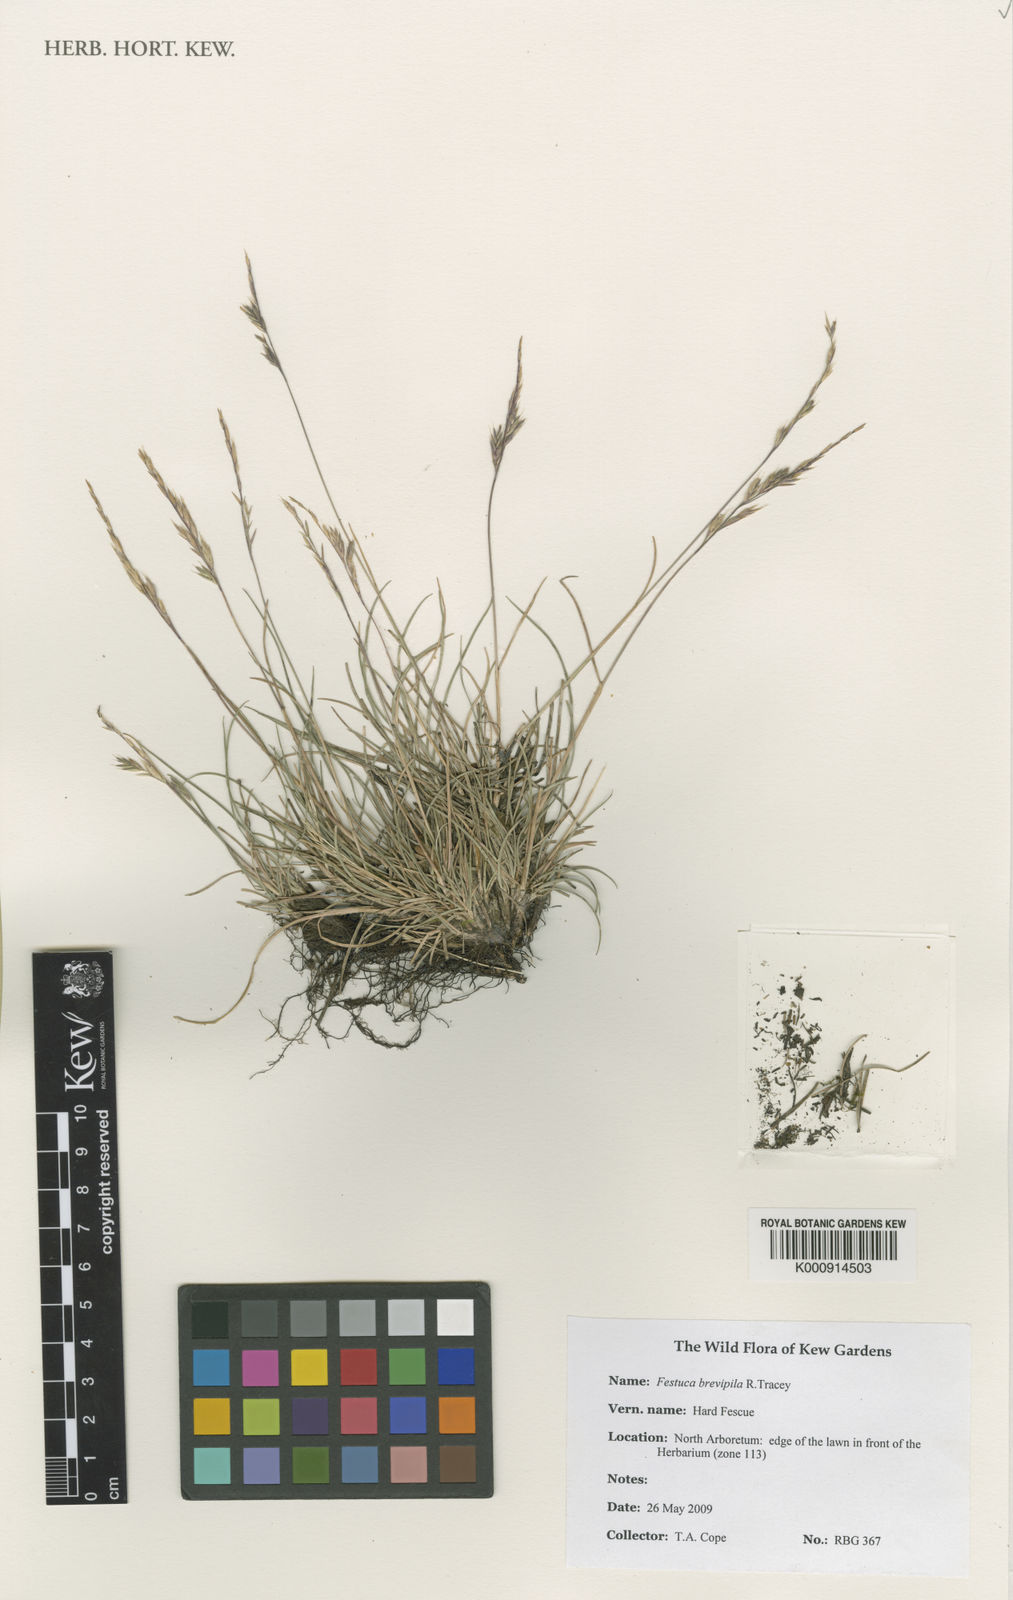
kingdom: Plantae
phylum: Tracheophyta
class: Liliopsida
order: Poales
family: Poaceae
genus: Festuca
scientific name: Festuca trachyphylla
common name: Hard fescue
